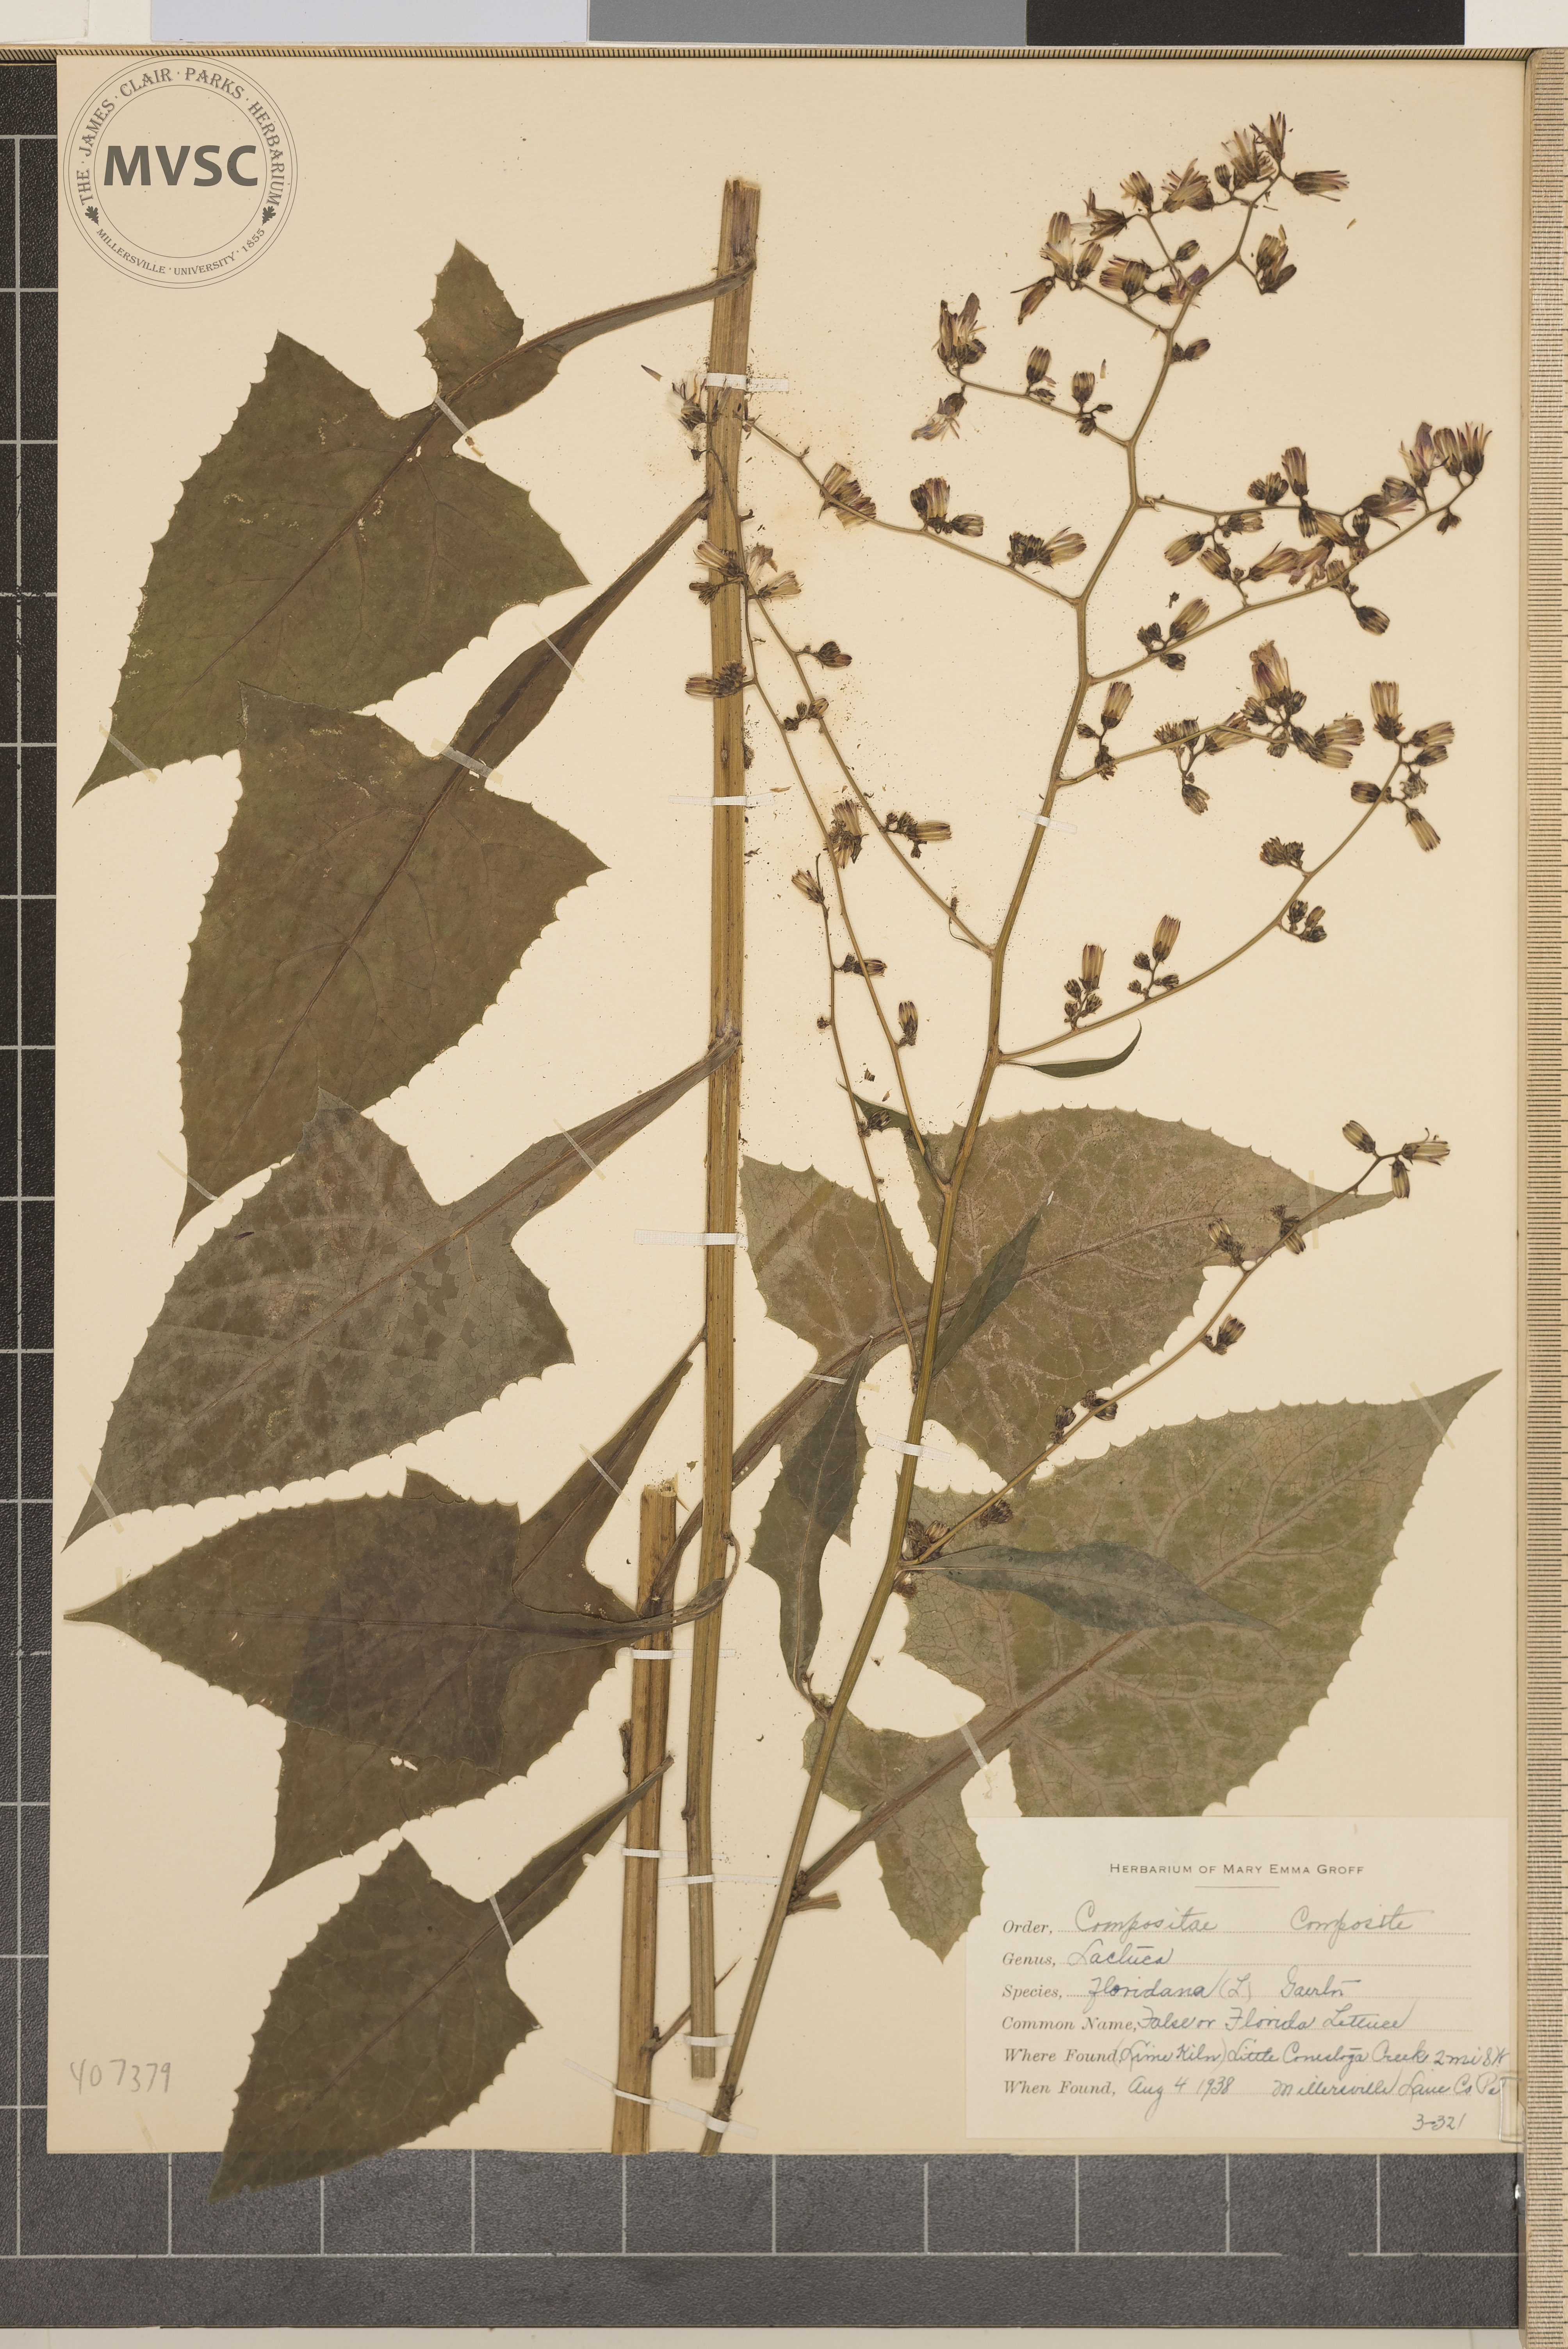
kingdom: Plantae
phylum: Tracheophyta
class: Magnoliopsida
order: Asterales
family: Asteraceae
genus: Lactuca
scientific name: Lactuca floridana
